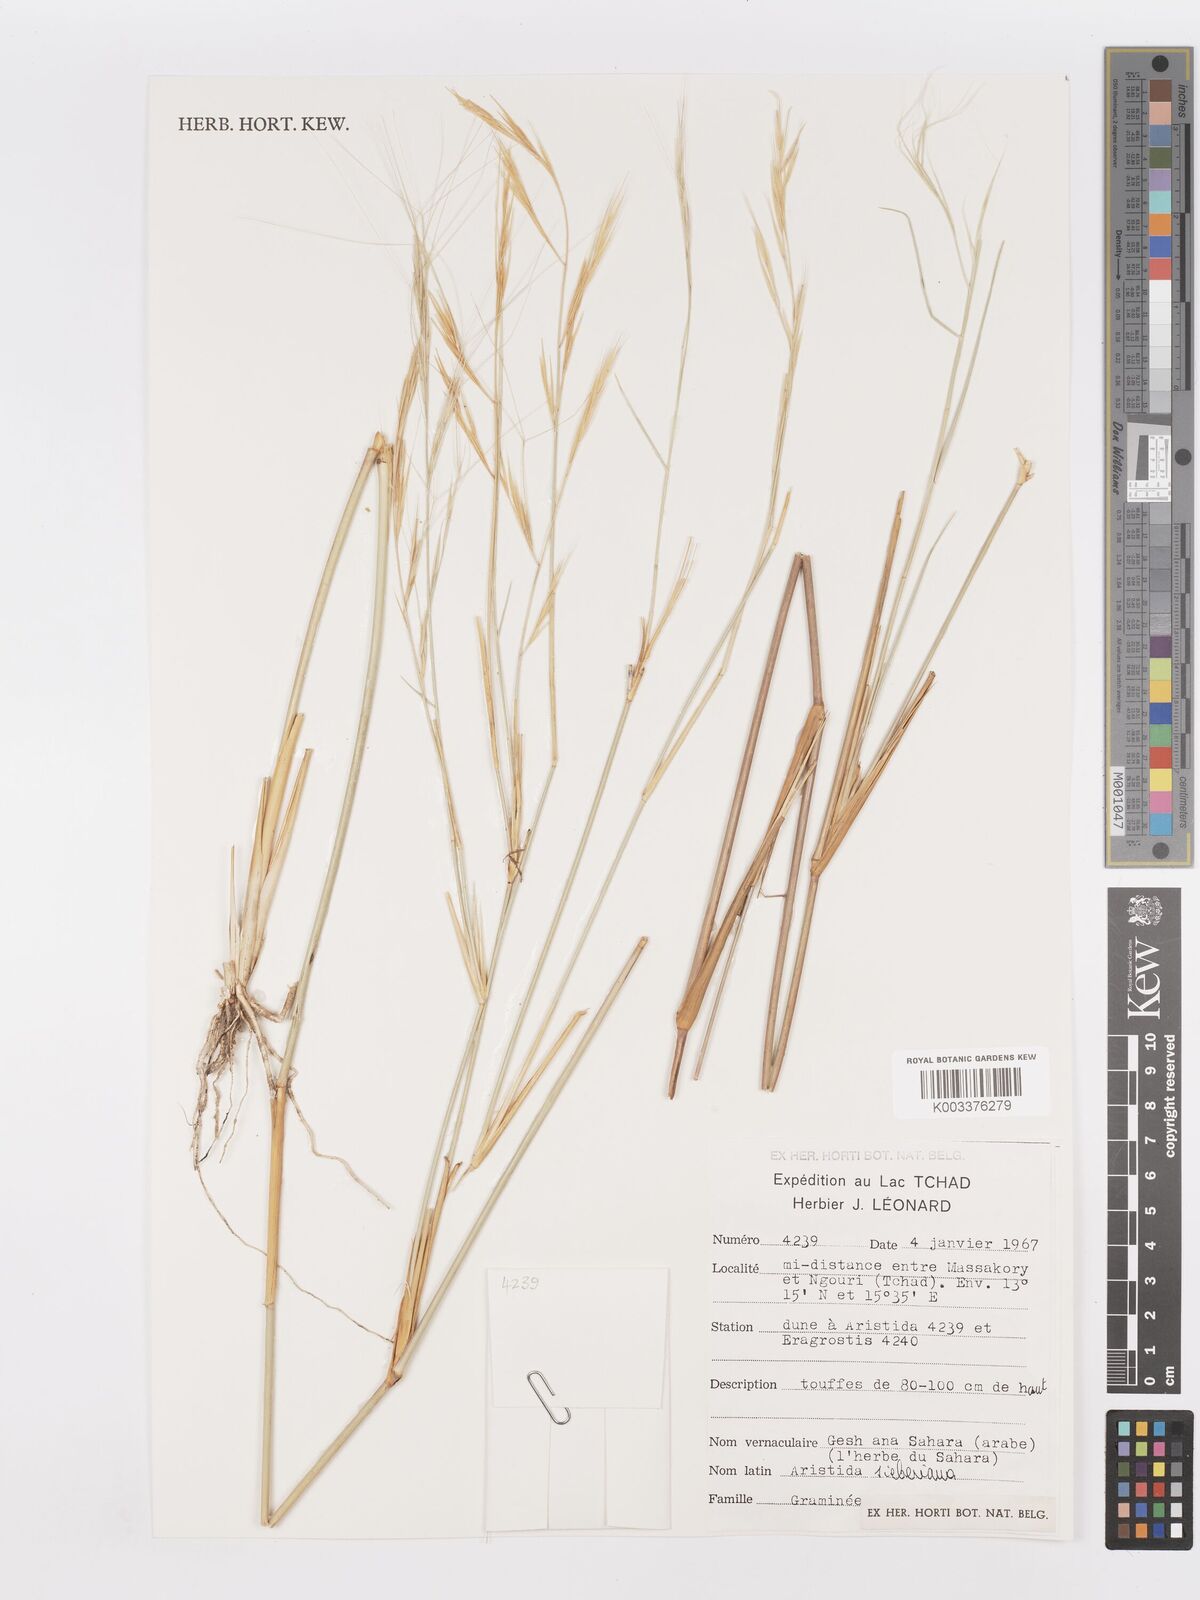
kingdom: Plantae
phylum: Tracheophyta
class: Liliopsida
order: Poales
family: Poaceae
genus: Aristida
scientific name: Aristida sieberiana
